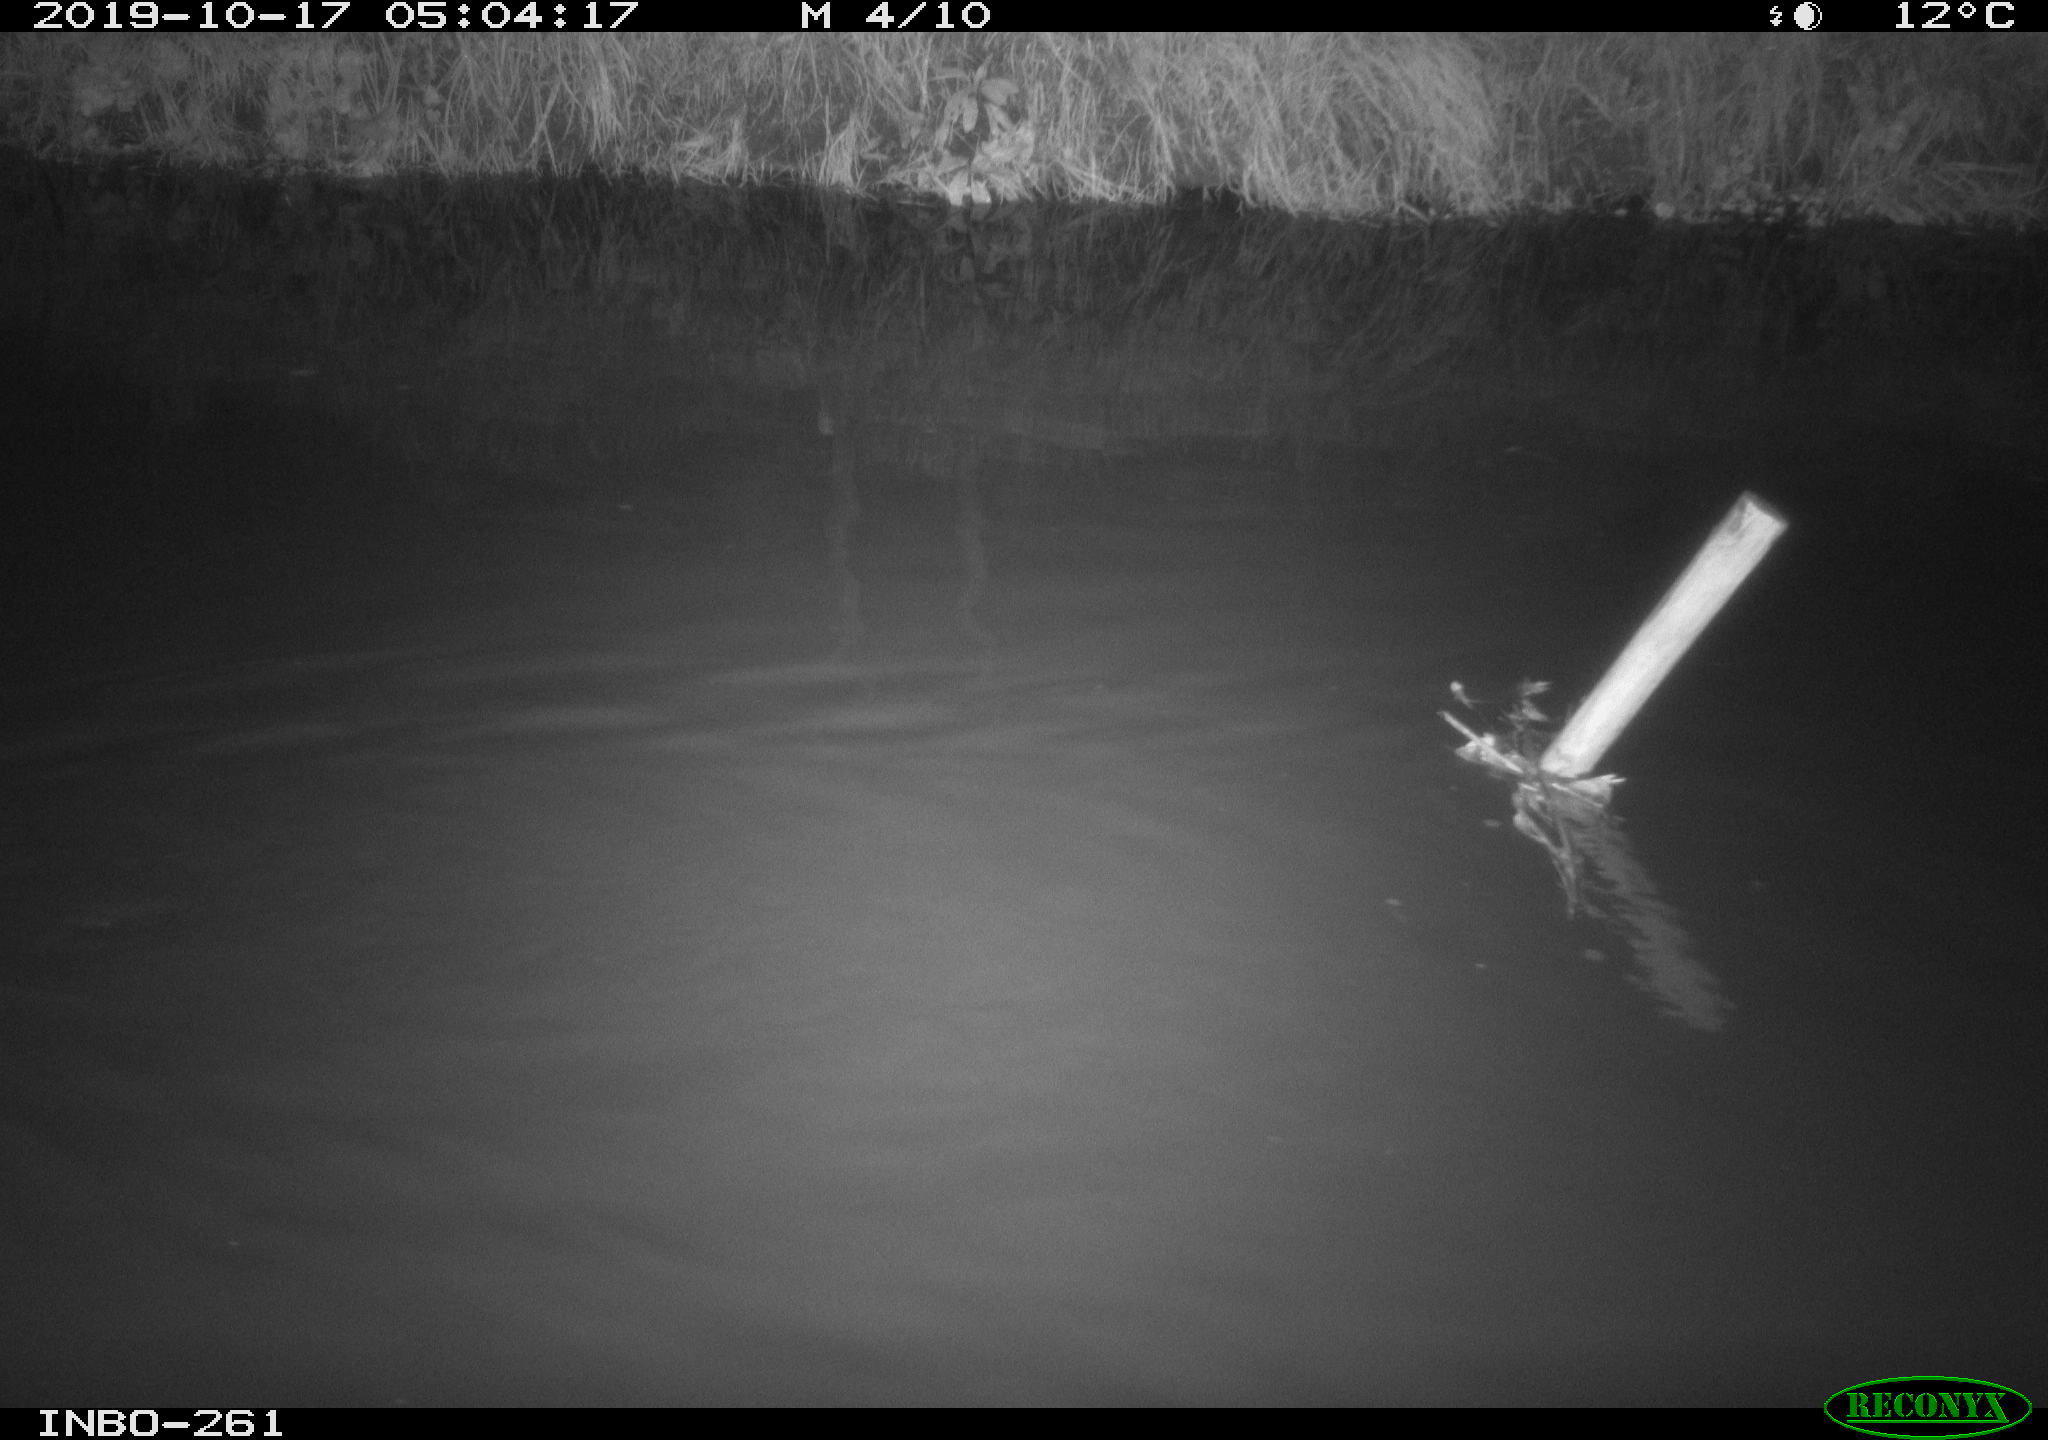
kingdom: Animalia
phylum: Chordata
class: Aves
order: Anseriformes
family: Anatidae
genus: Anas
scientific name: Anas platyrhynchos
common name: Mallard
